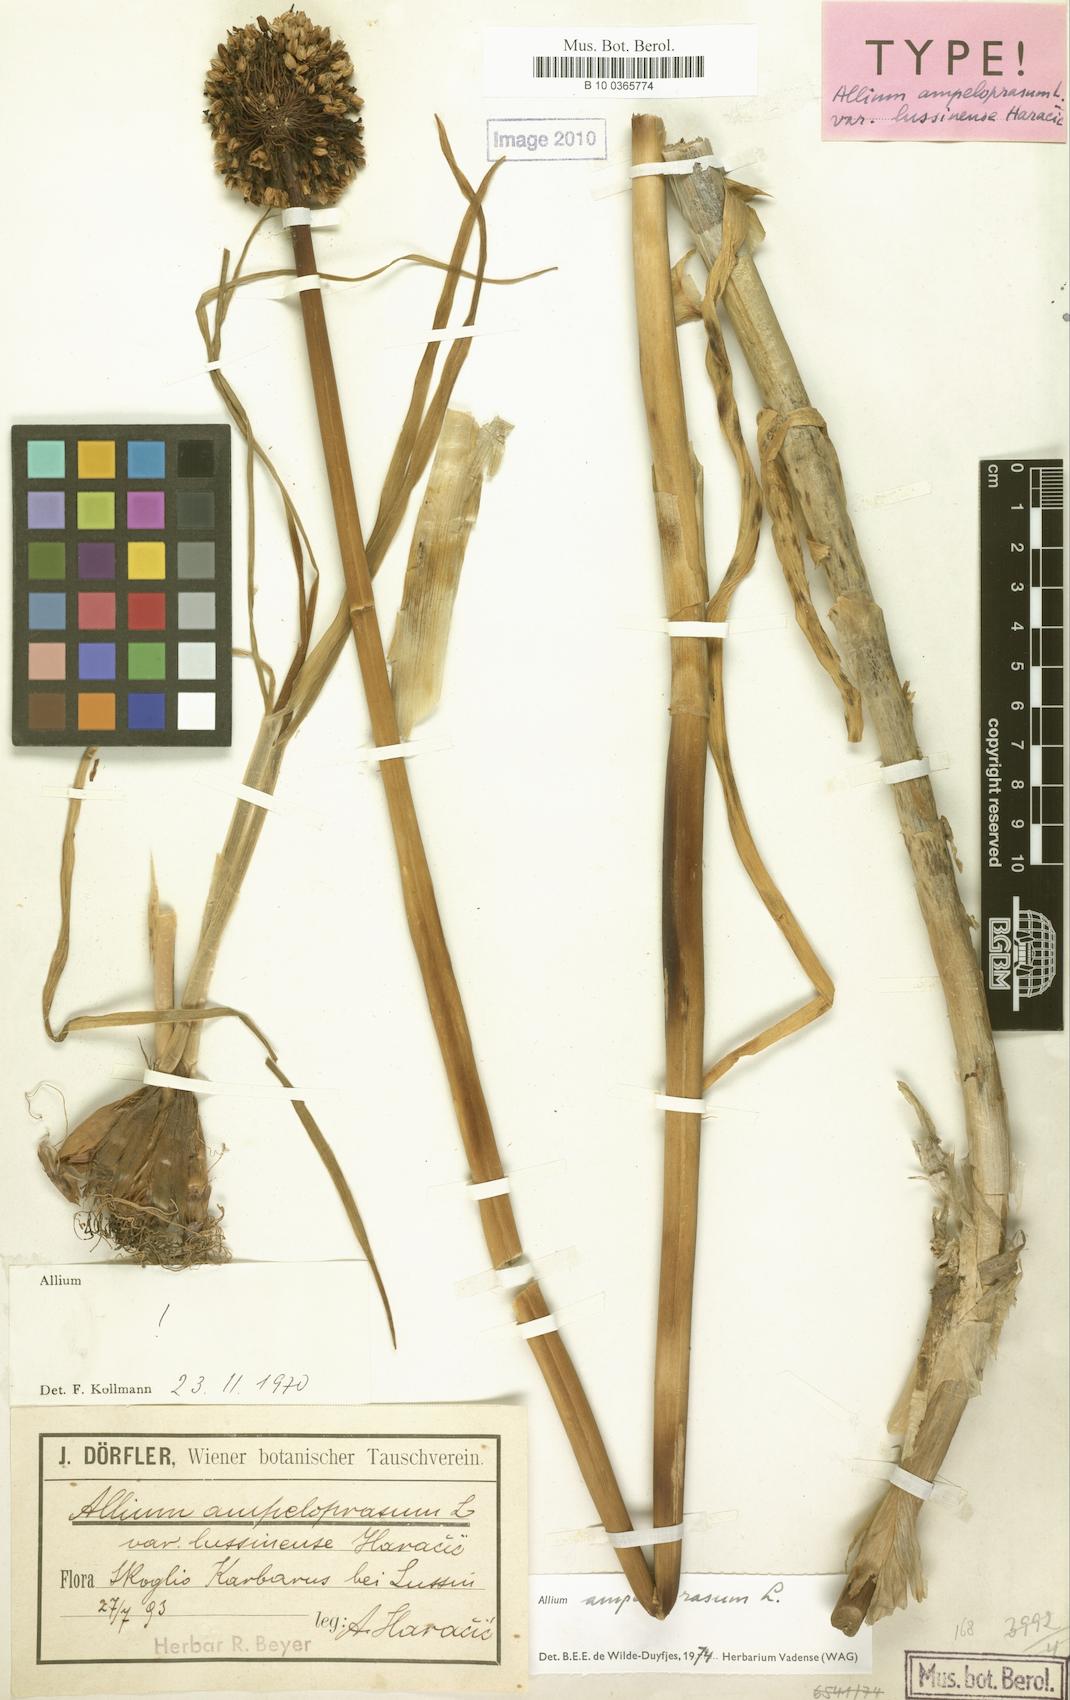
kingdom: Plantae
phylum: Tracheophyta
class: Liliopsida
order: Asparagales
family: Amaryllidaceae
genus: Allium
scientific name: Allium commutatum
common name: Sea garlic
